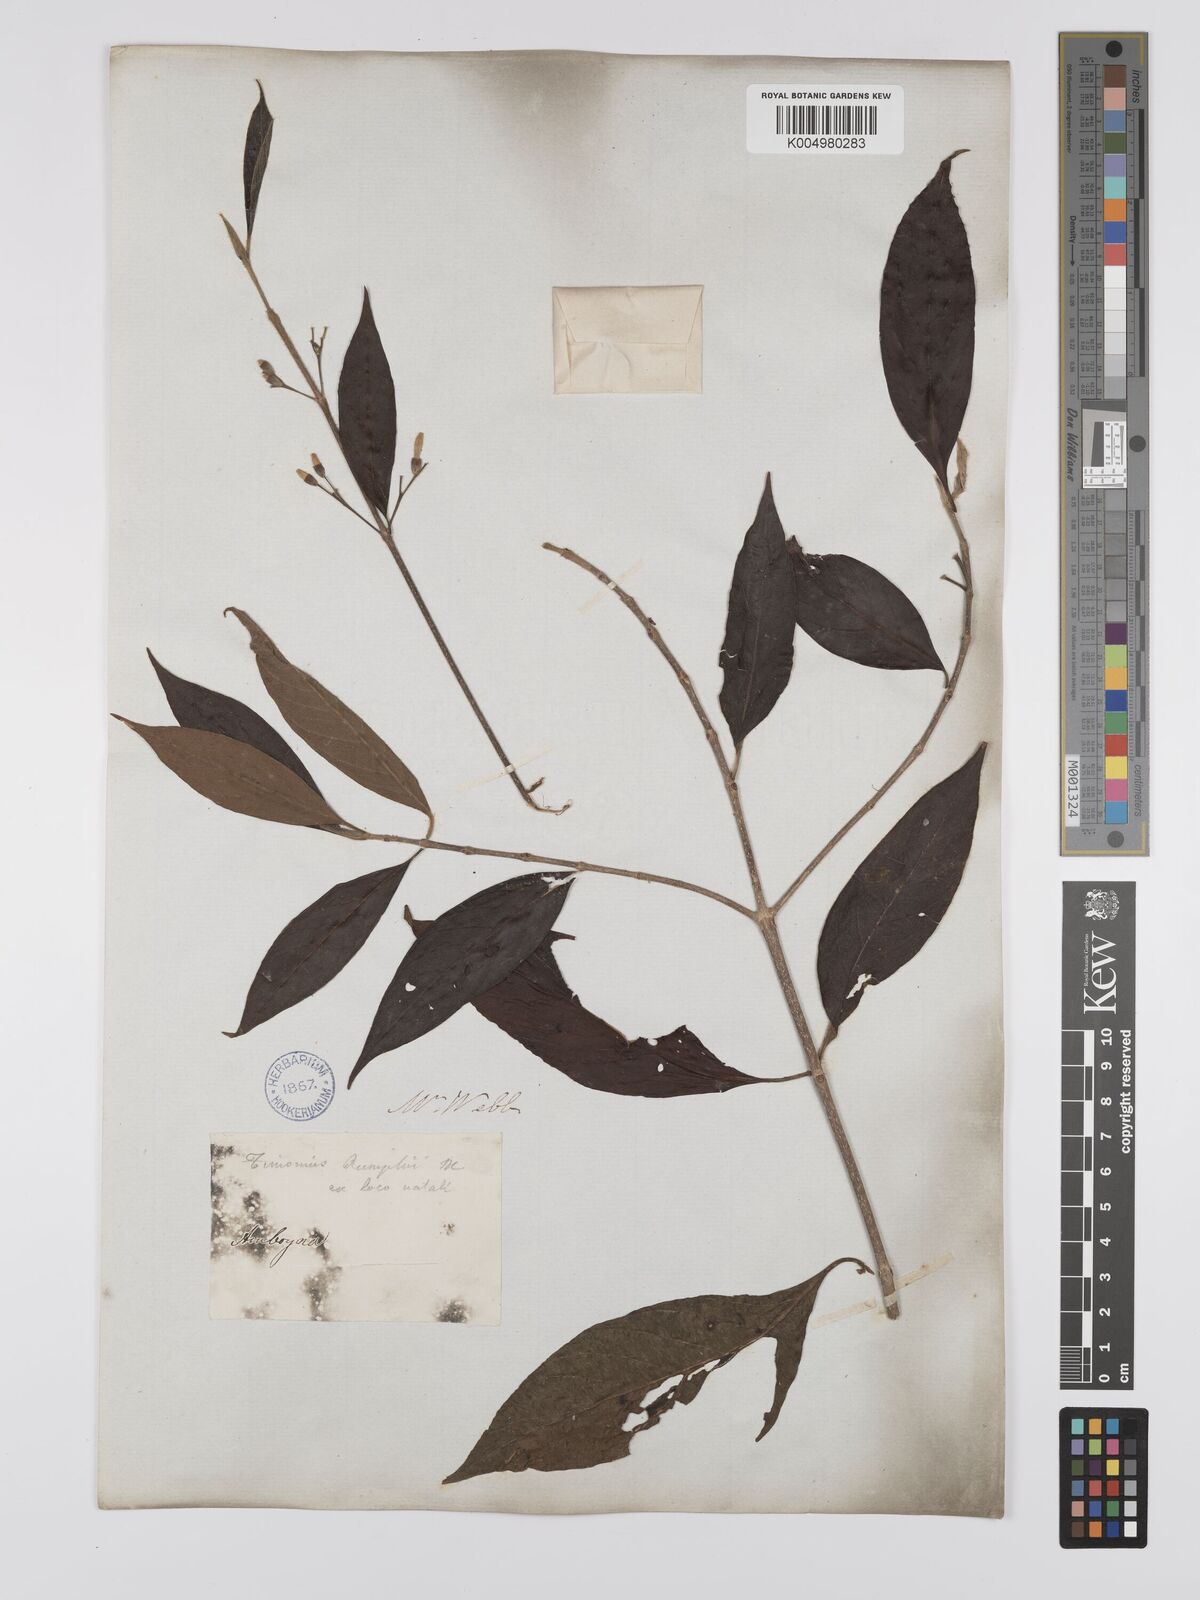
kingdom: Plantae
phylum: Tracheophyta
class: Magnoliopsida
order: Gentianales
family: Rubiaceae
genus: Timonius
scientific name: Timonius timon
